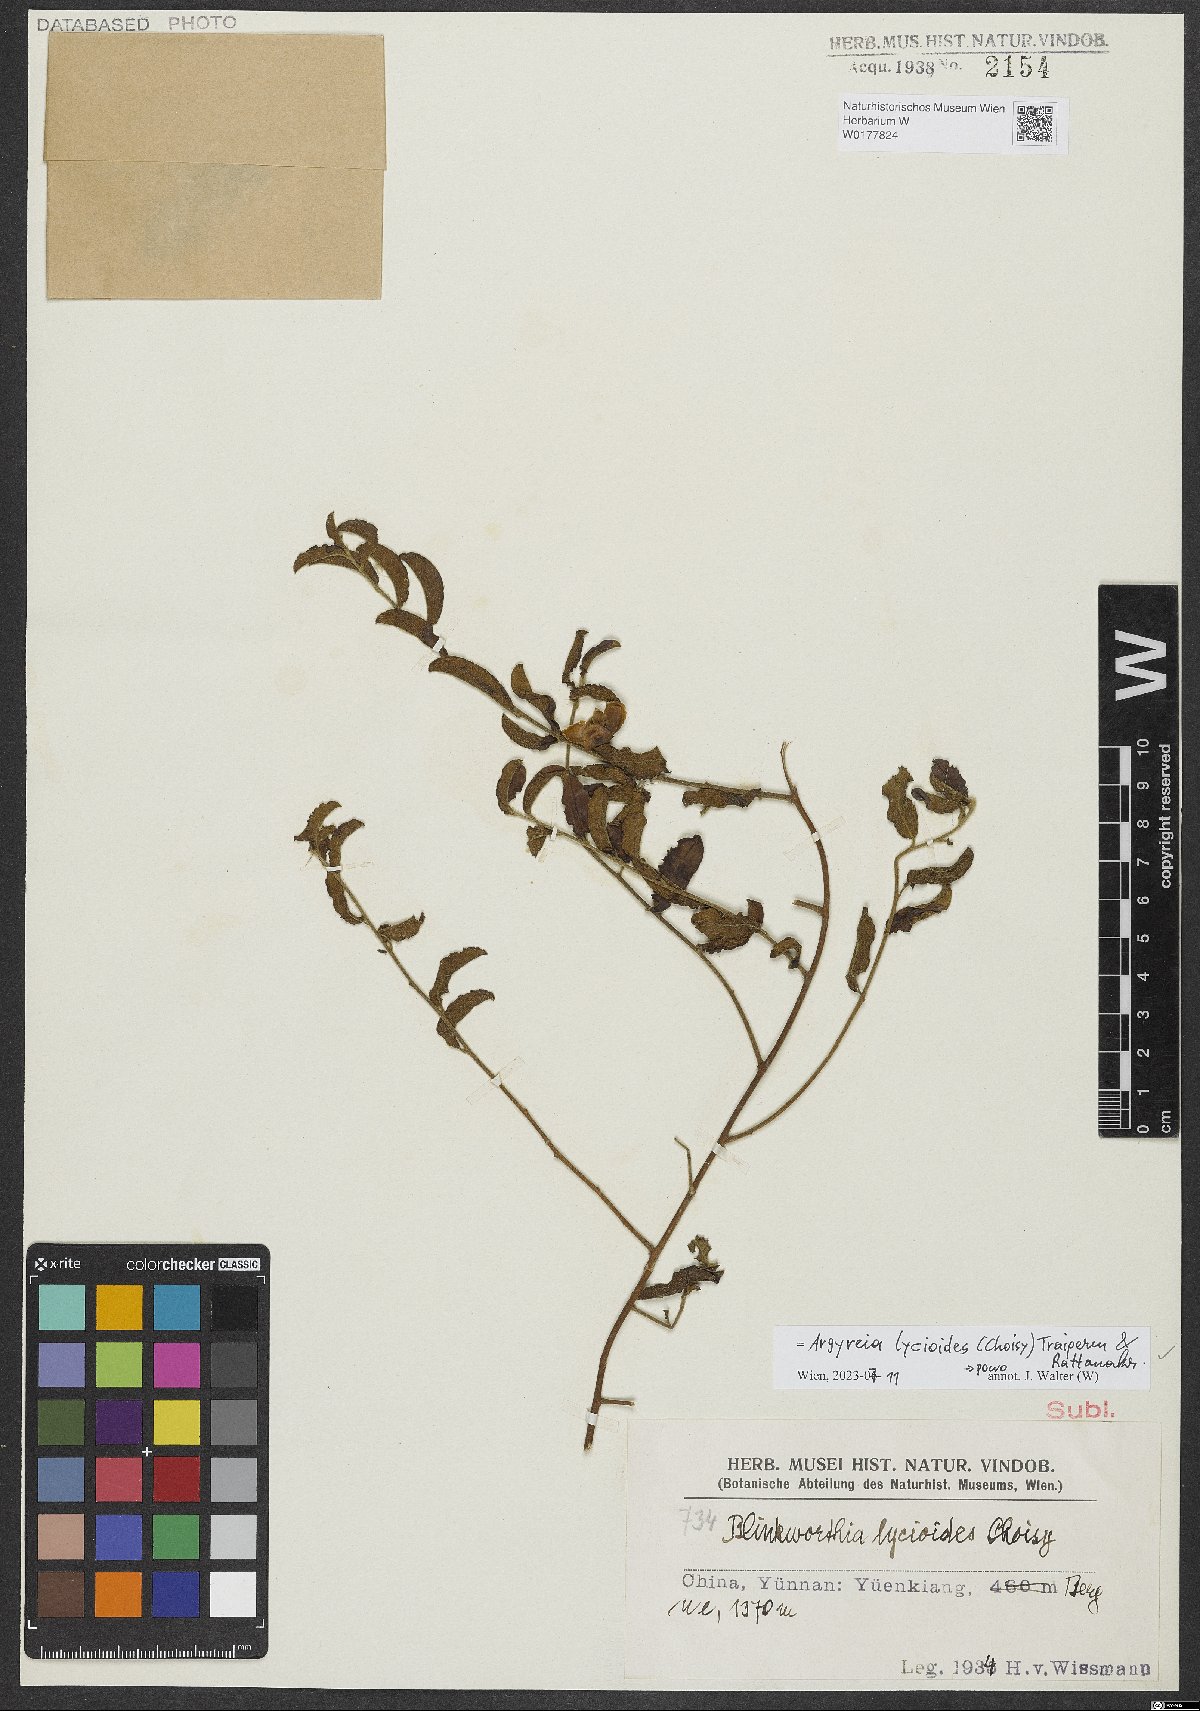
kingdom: Plantae
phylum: Tracheophyta
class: Magnoliopsida
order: Solanales
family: Convolvulaceae
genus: Blinkworthia
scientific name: Blinkworthia lycioides
